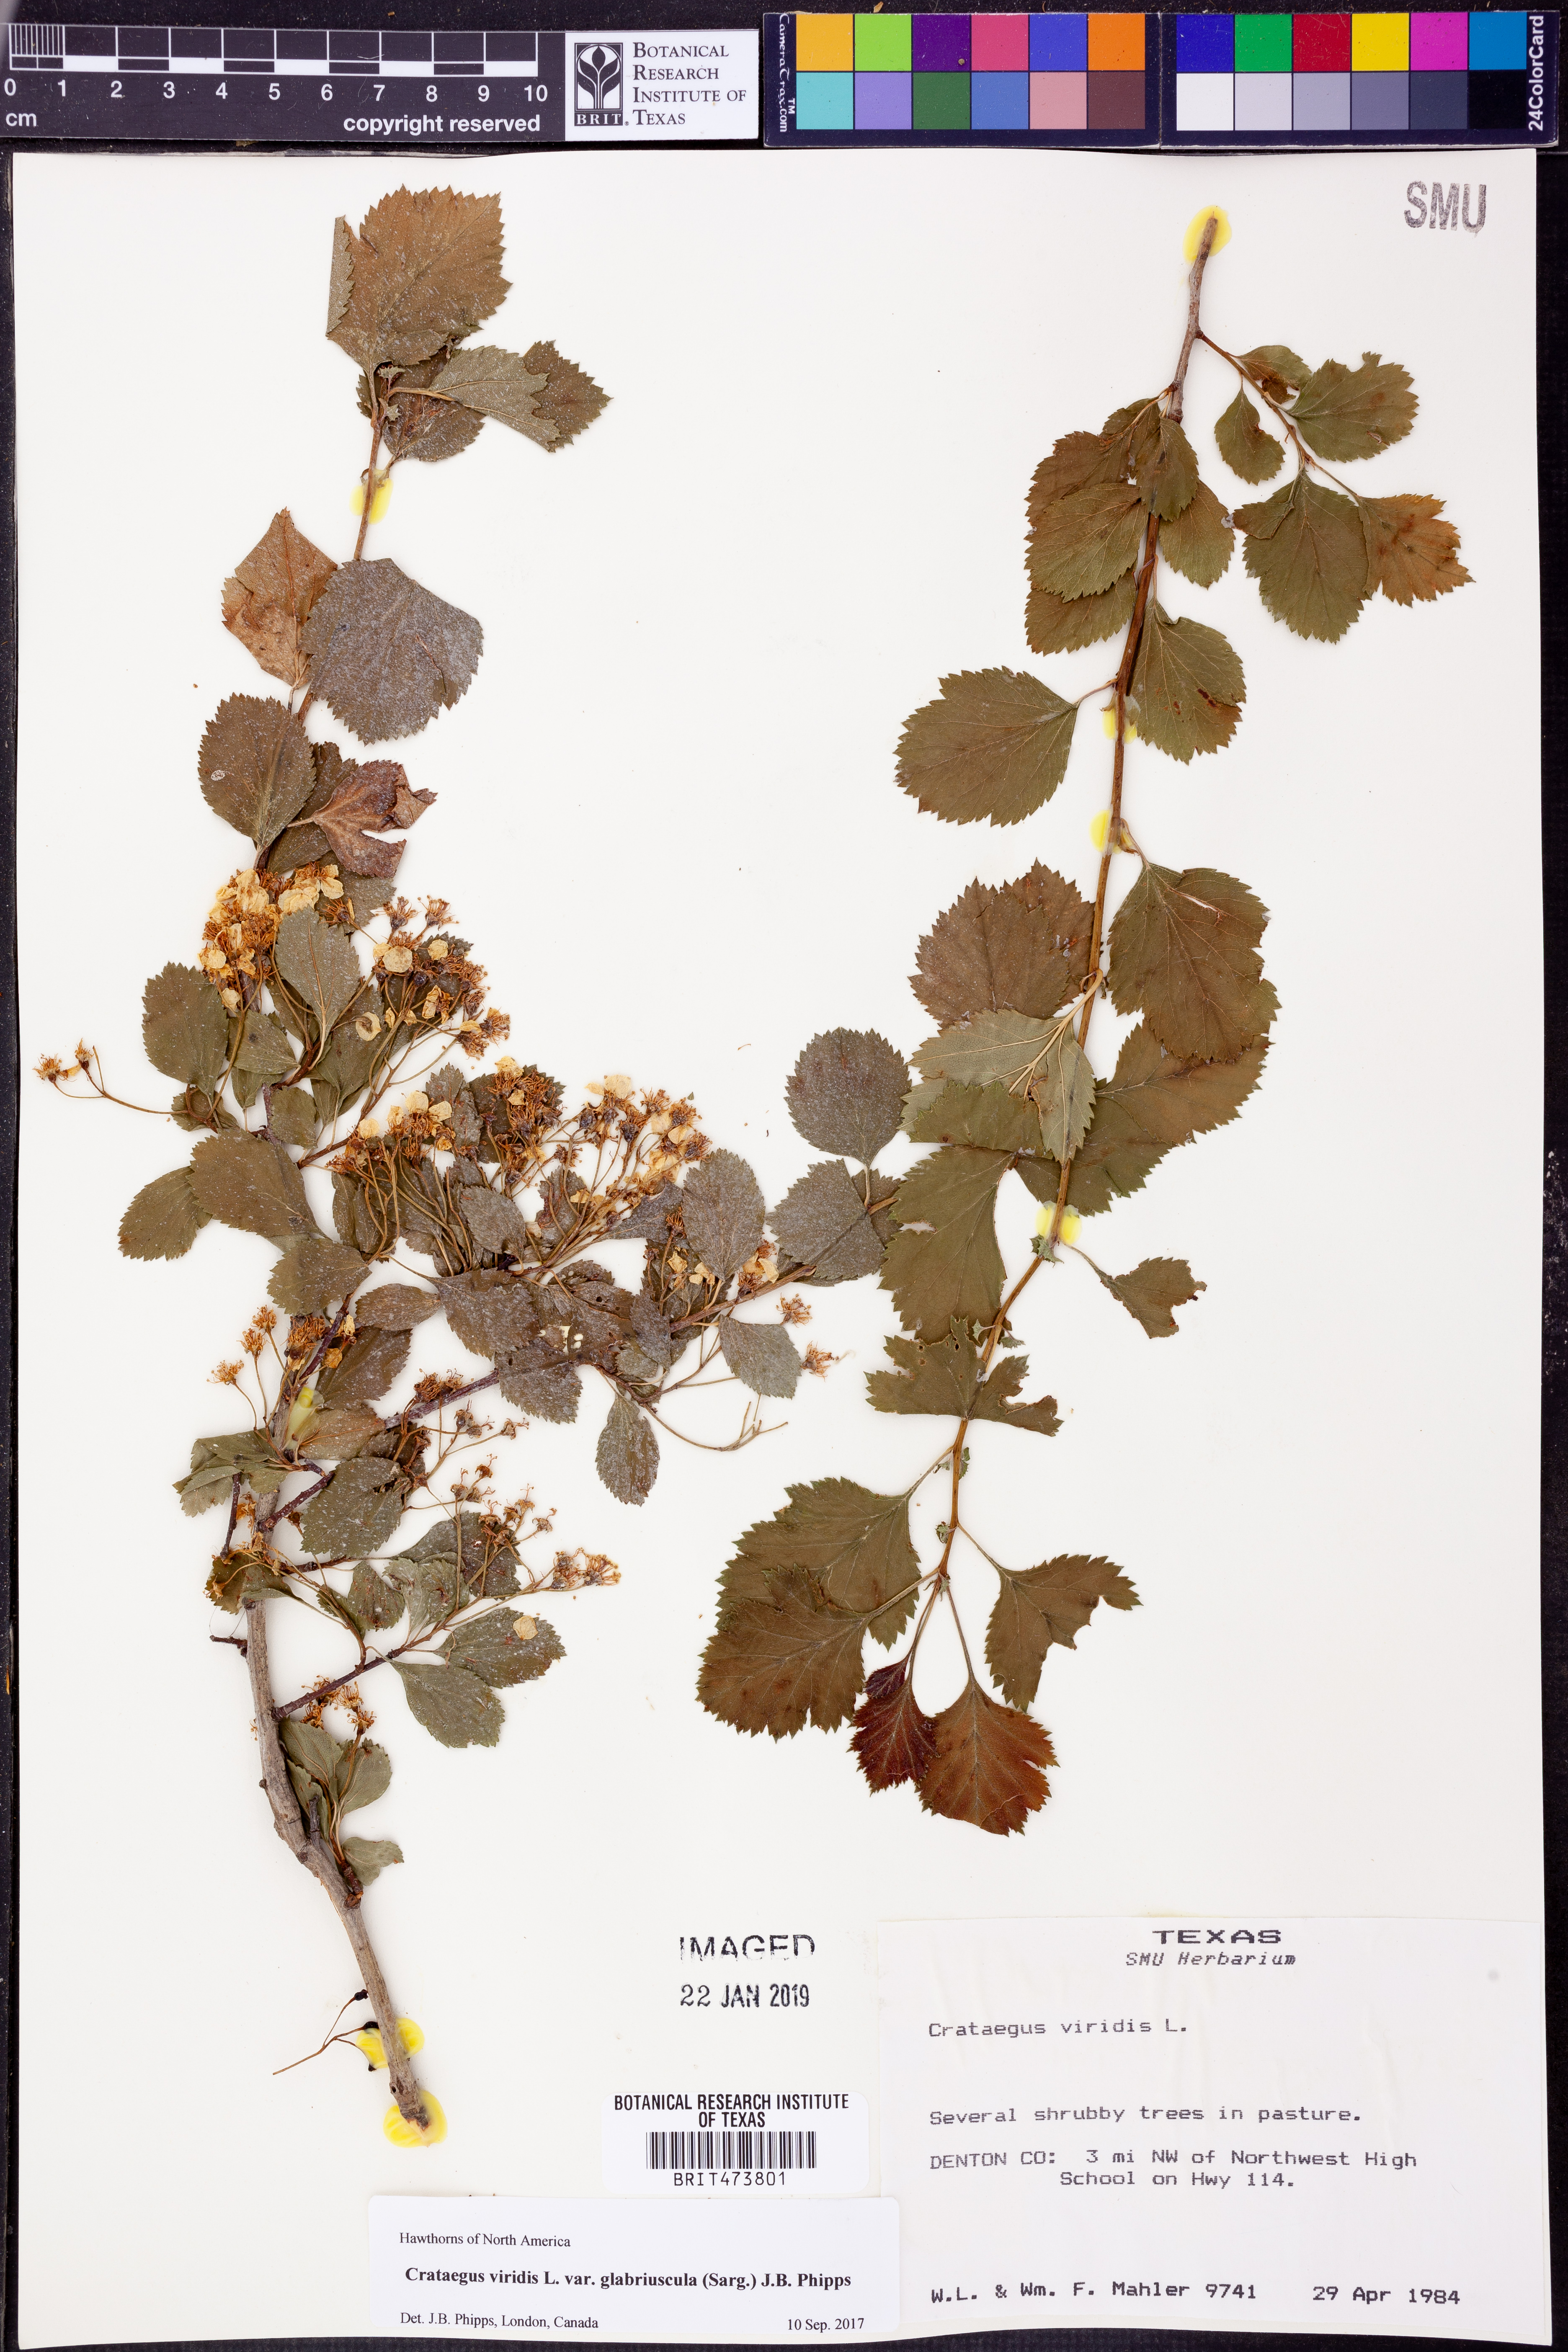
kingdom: Plantae
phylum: Tracheophyta
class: Magnoliopsida
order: Rosales
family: Rosaceae
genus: Crataegus
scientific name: Crataegus viridis
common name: Southernthorn
